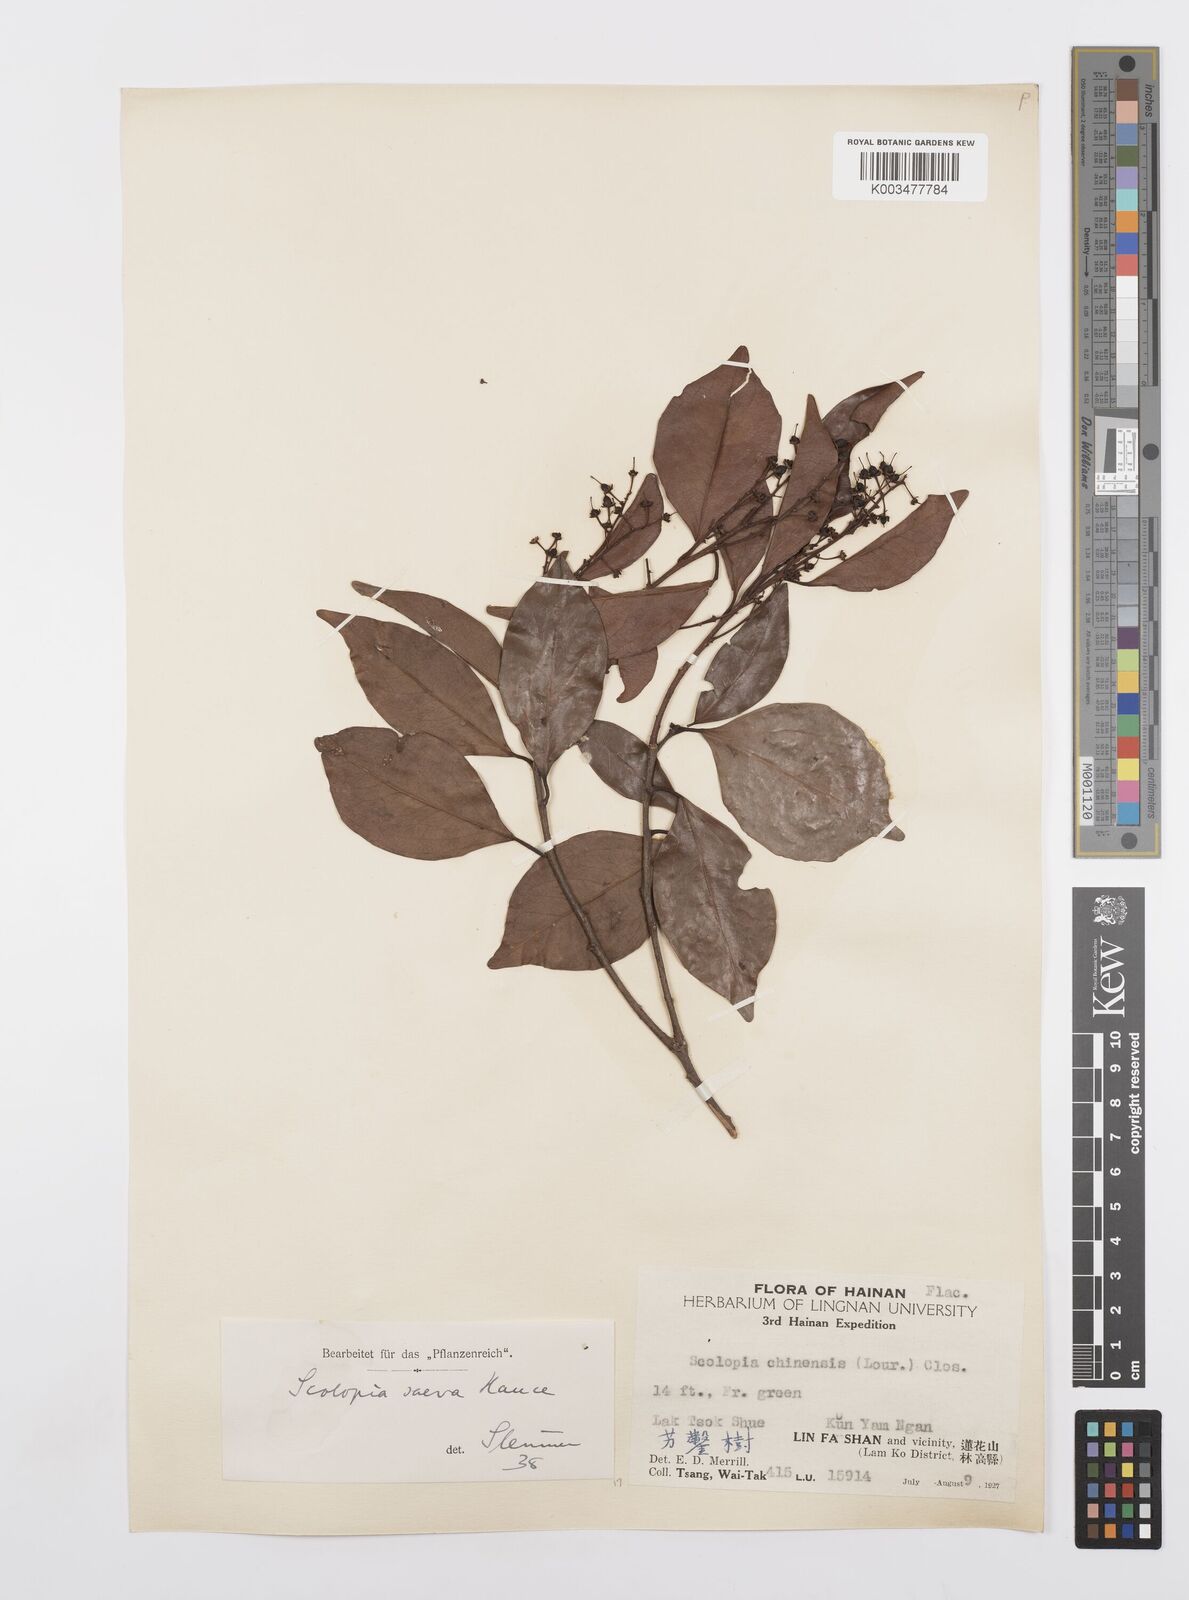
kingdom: Plantae
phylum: Tracheophyta
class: Magnoliopsida
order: Malpighiales
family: Salicaceae
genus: Scolopia
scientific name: Scolopia saeva
